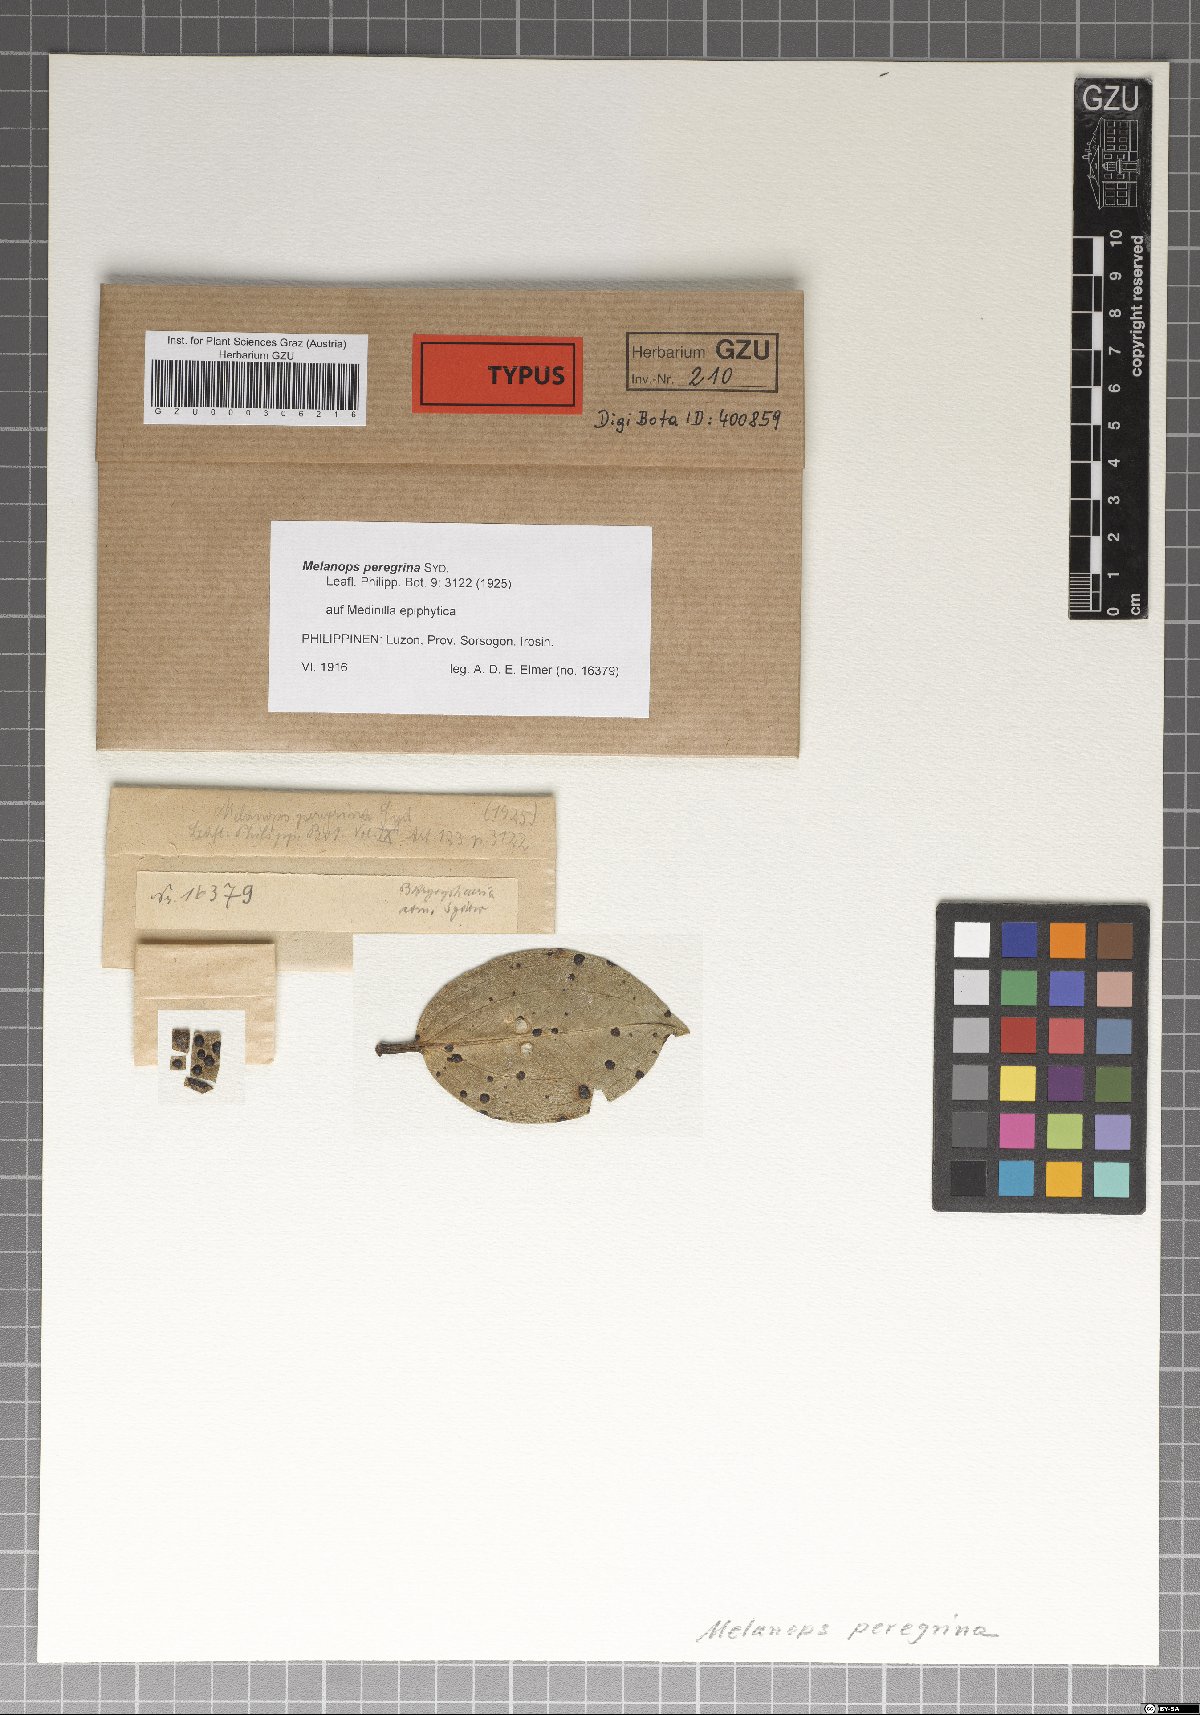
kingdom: Fungi
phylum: Ascomycota
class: Dothideomycetes
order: Botryosphaeriales
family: Botryosphaeriaceae
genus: Melanops
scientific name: Melanops peregrina
